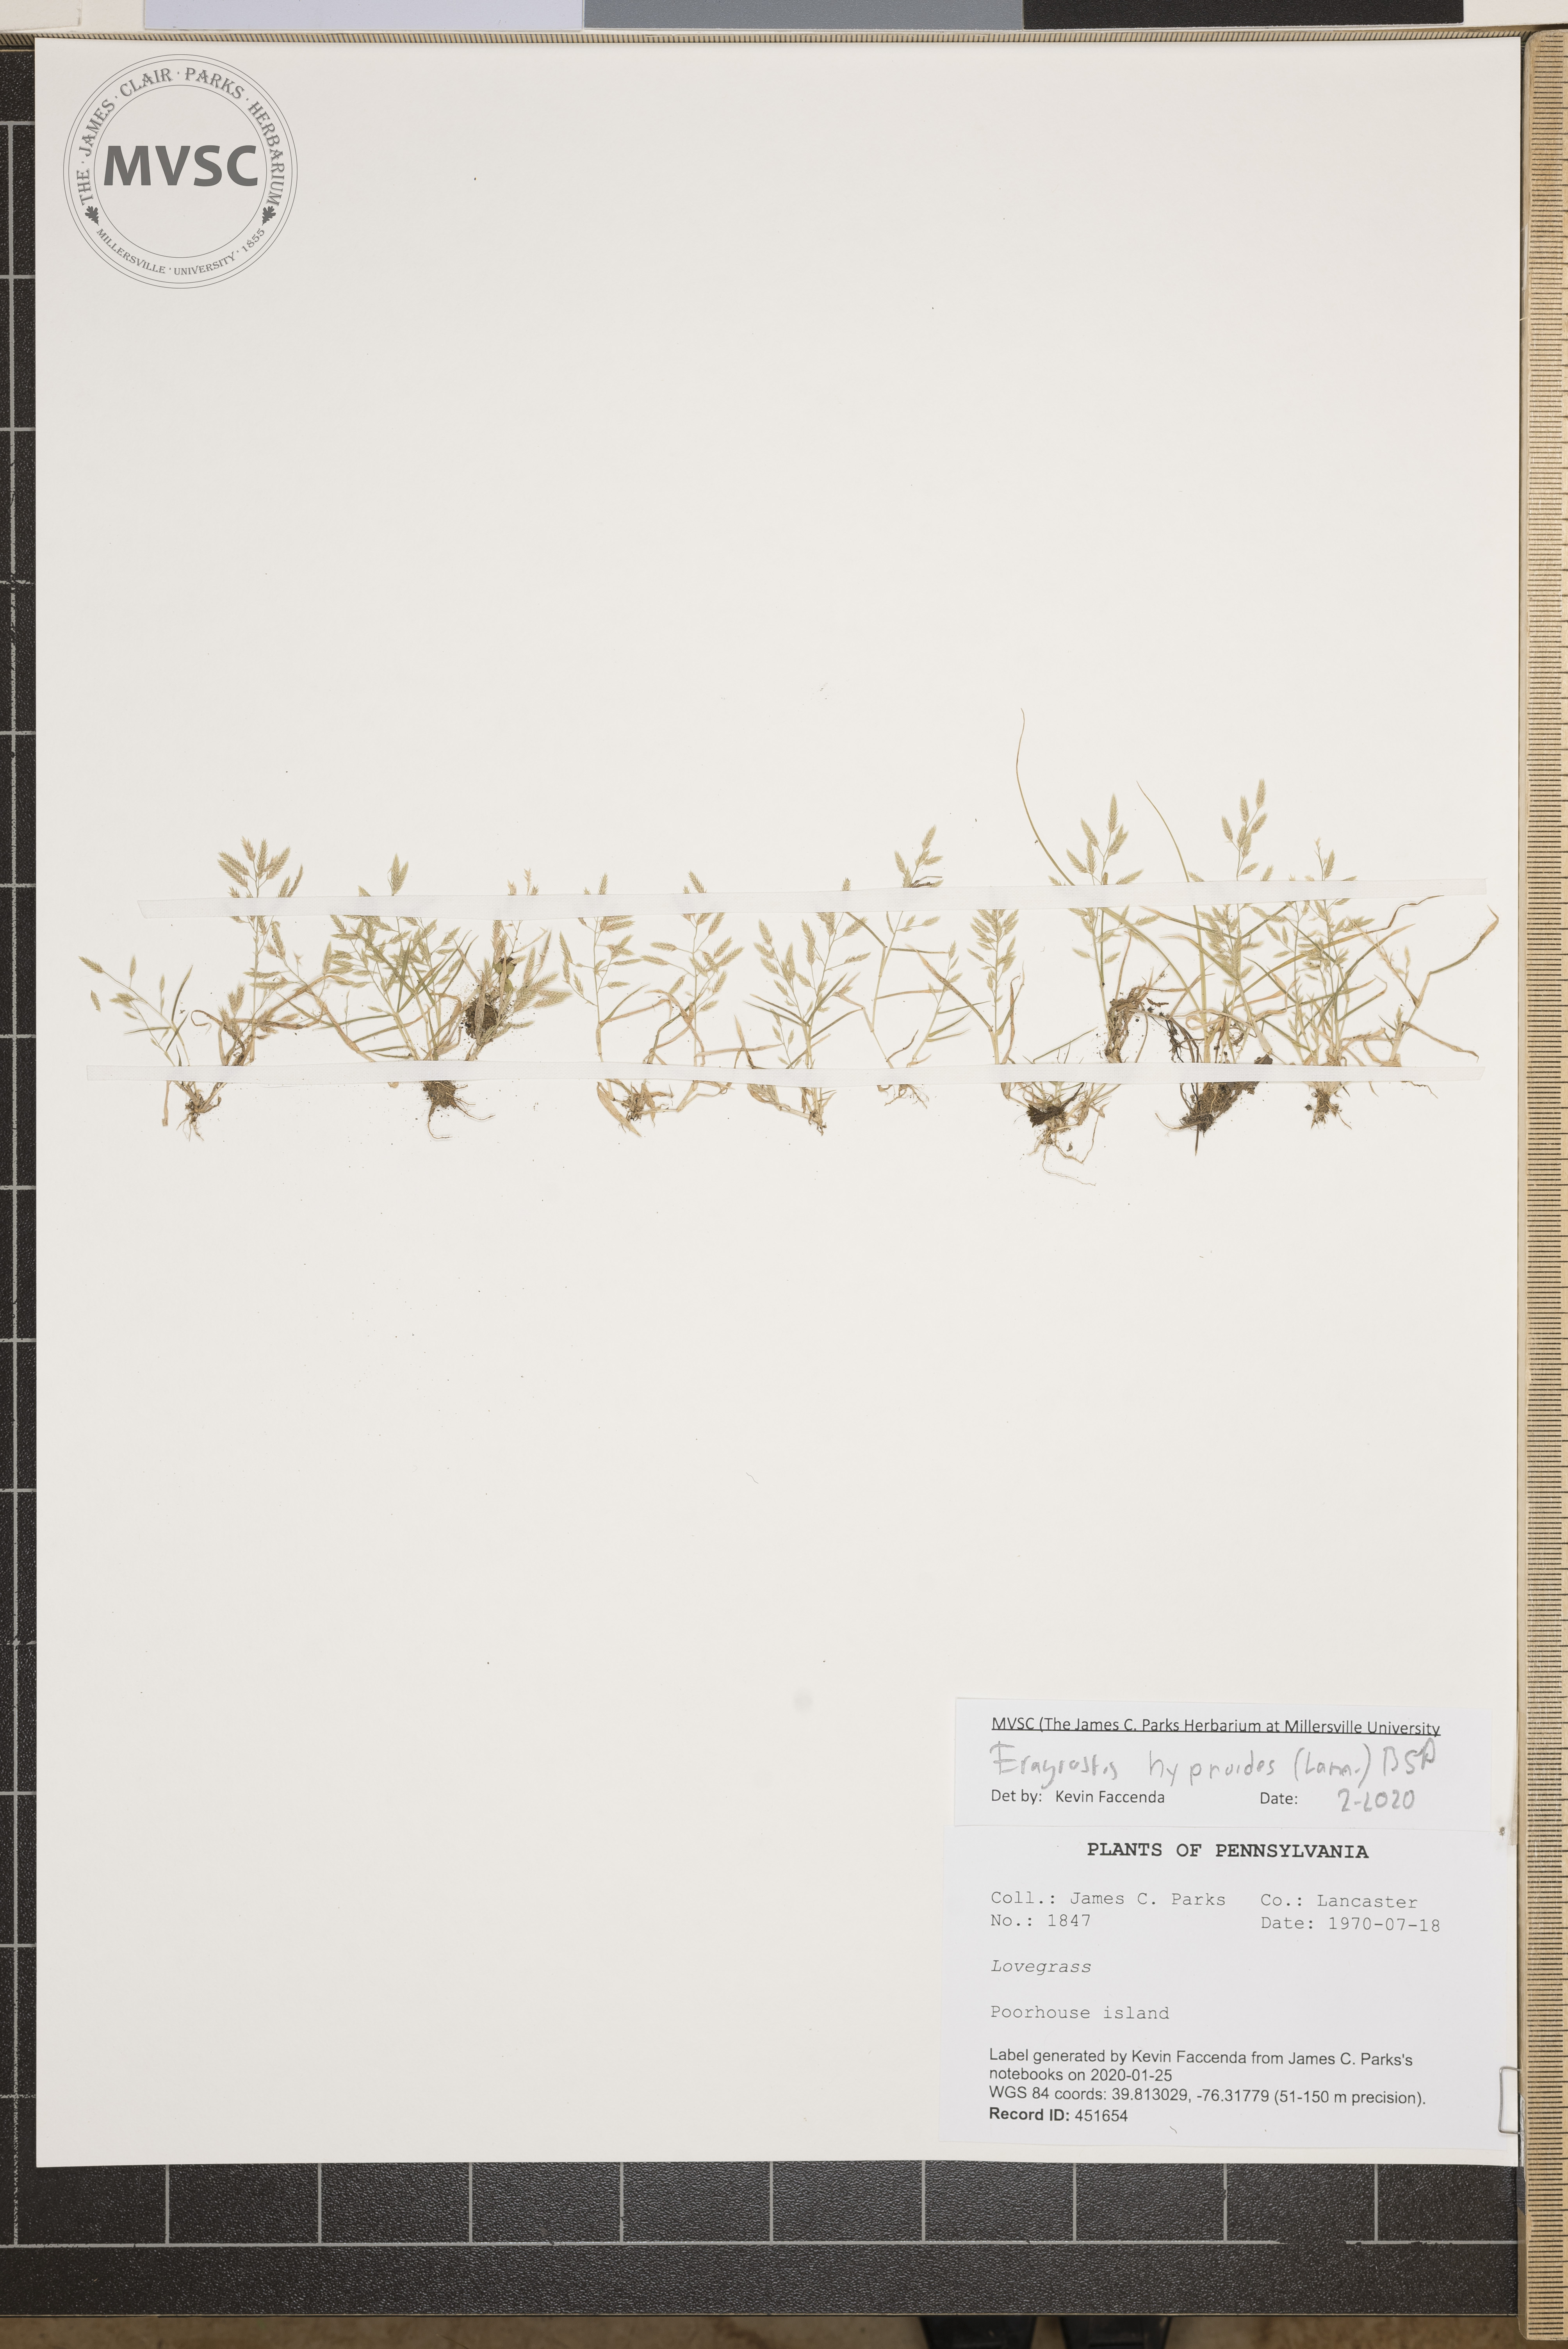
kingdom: Plantae
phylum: Tracheophyta
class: Liliopsida
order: Poales
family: Poaceae
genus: Eragrostis
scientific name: Eragrostis hypnoides
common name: Creeping love grass
